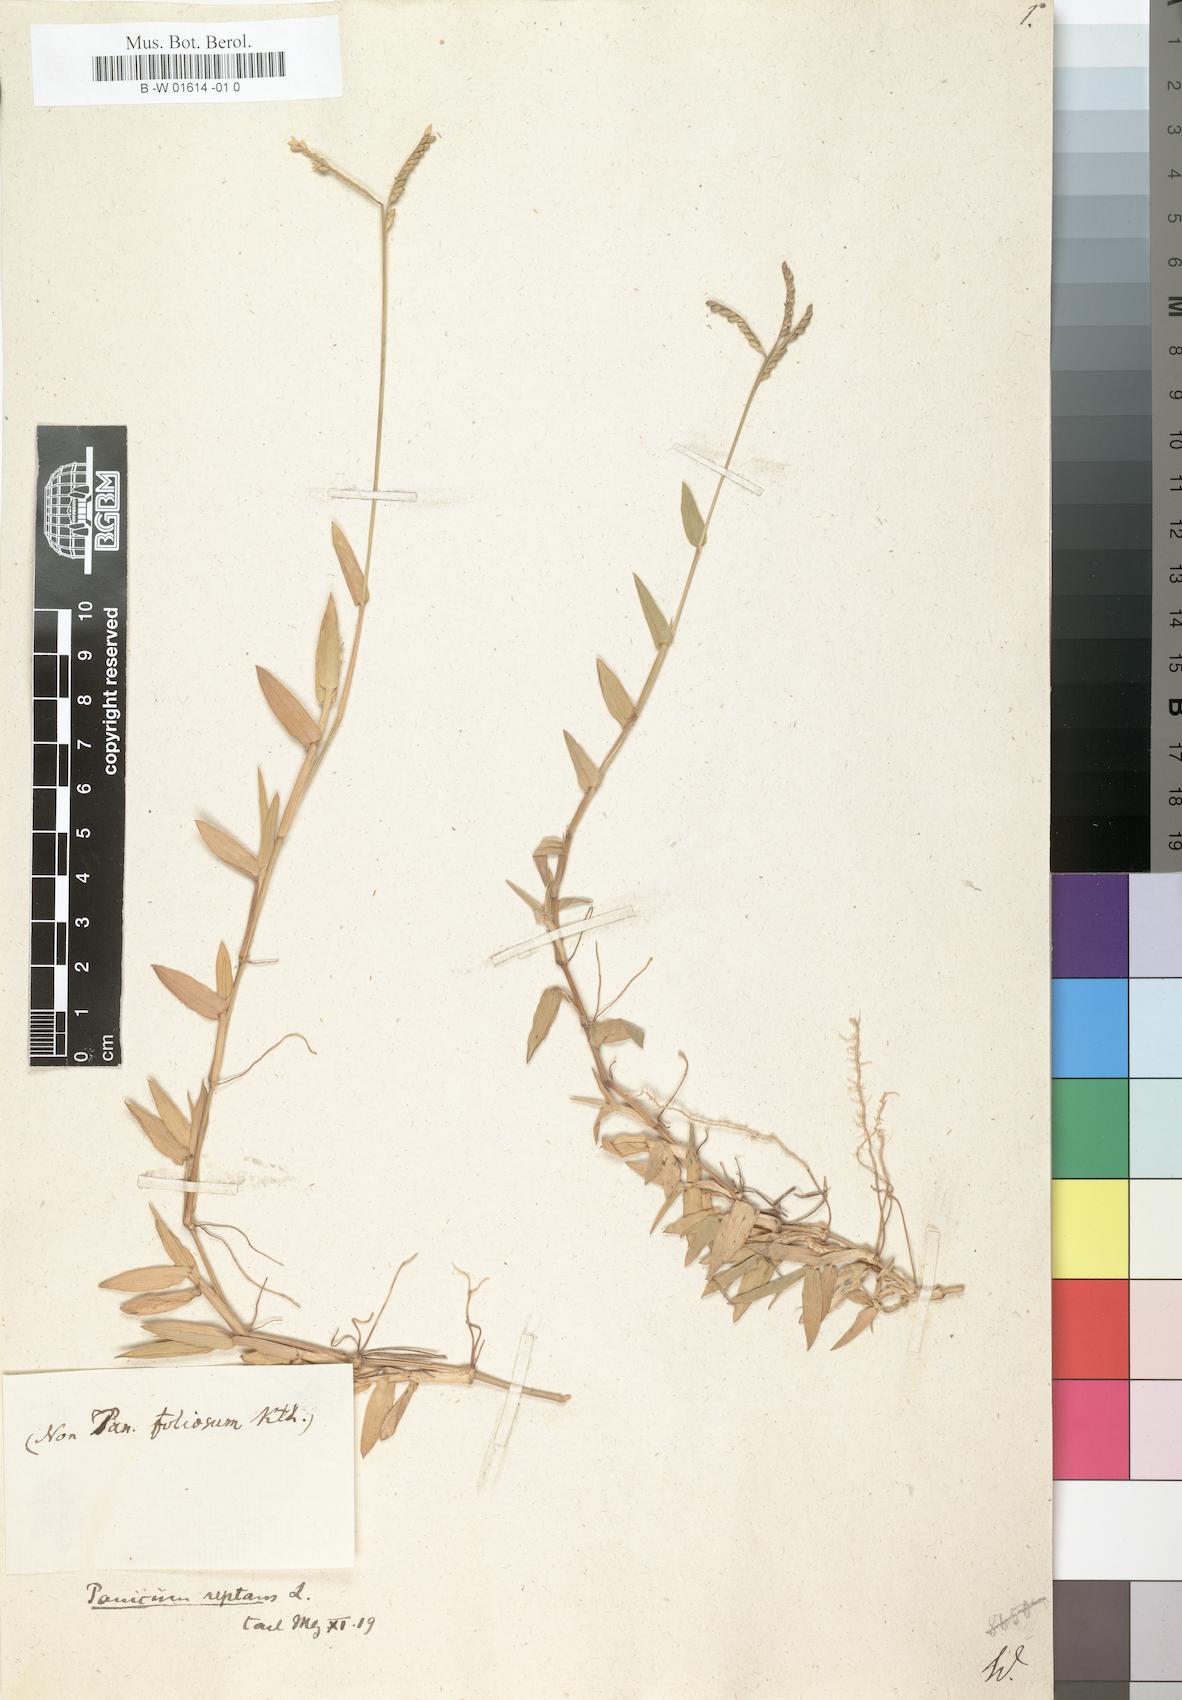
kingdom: Plantae
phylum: Tracheophyta
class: Liliopsida
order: Poales
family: Poaceae
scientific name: Poaceae
